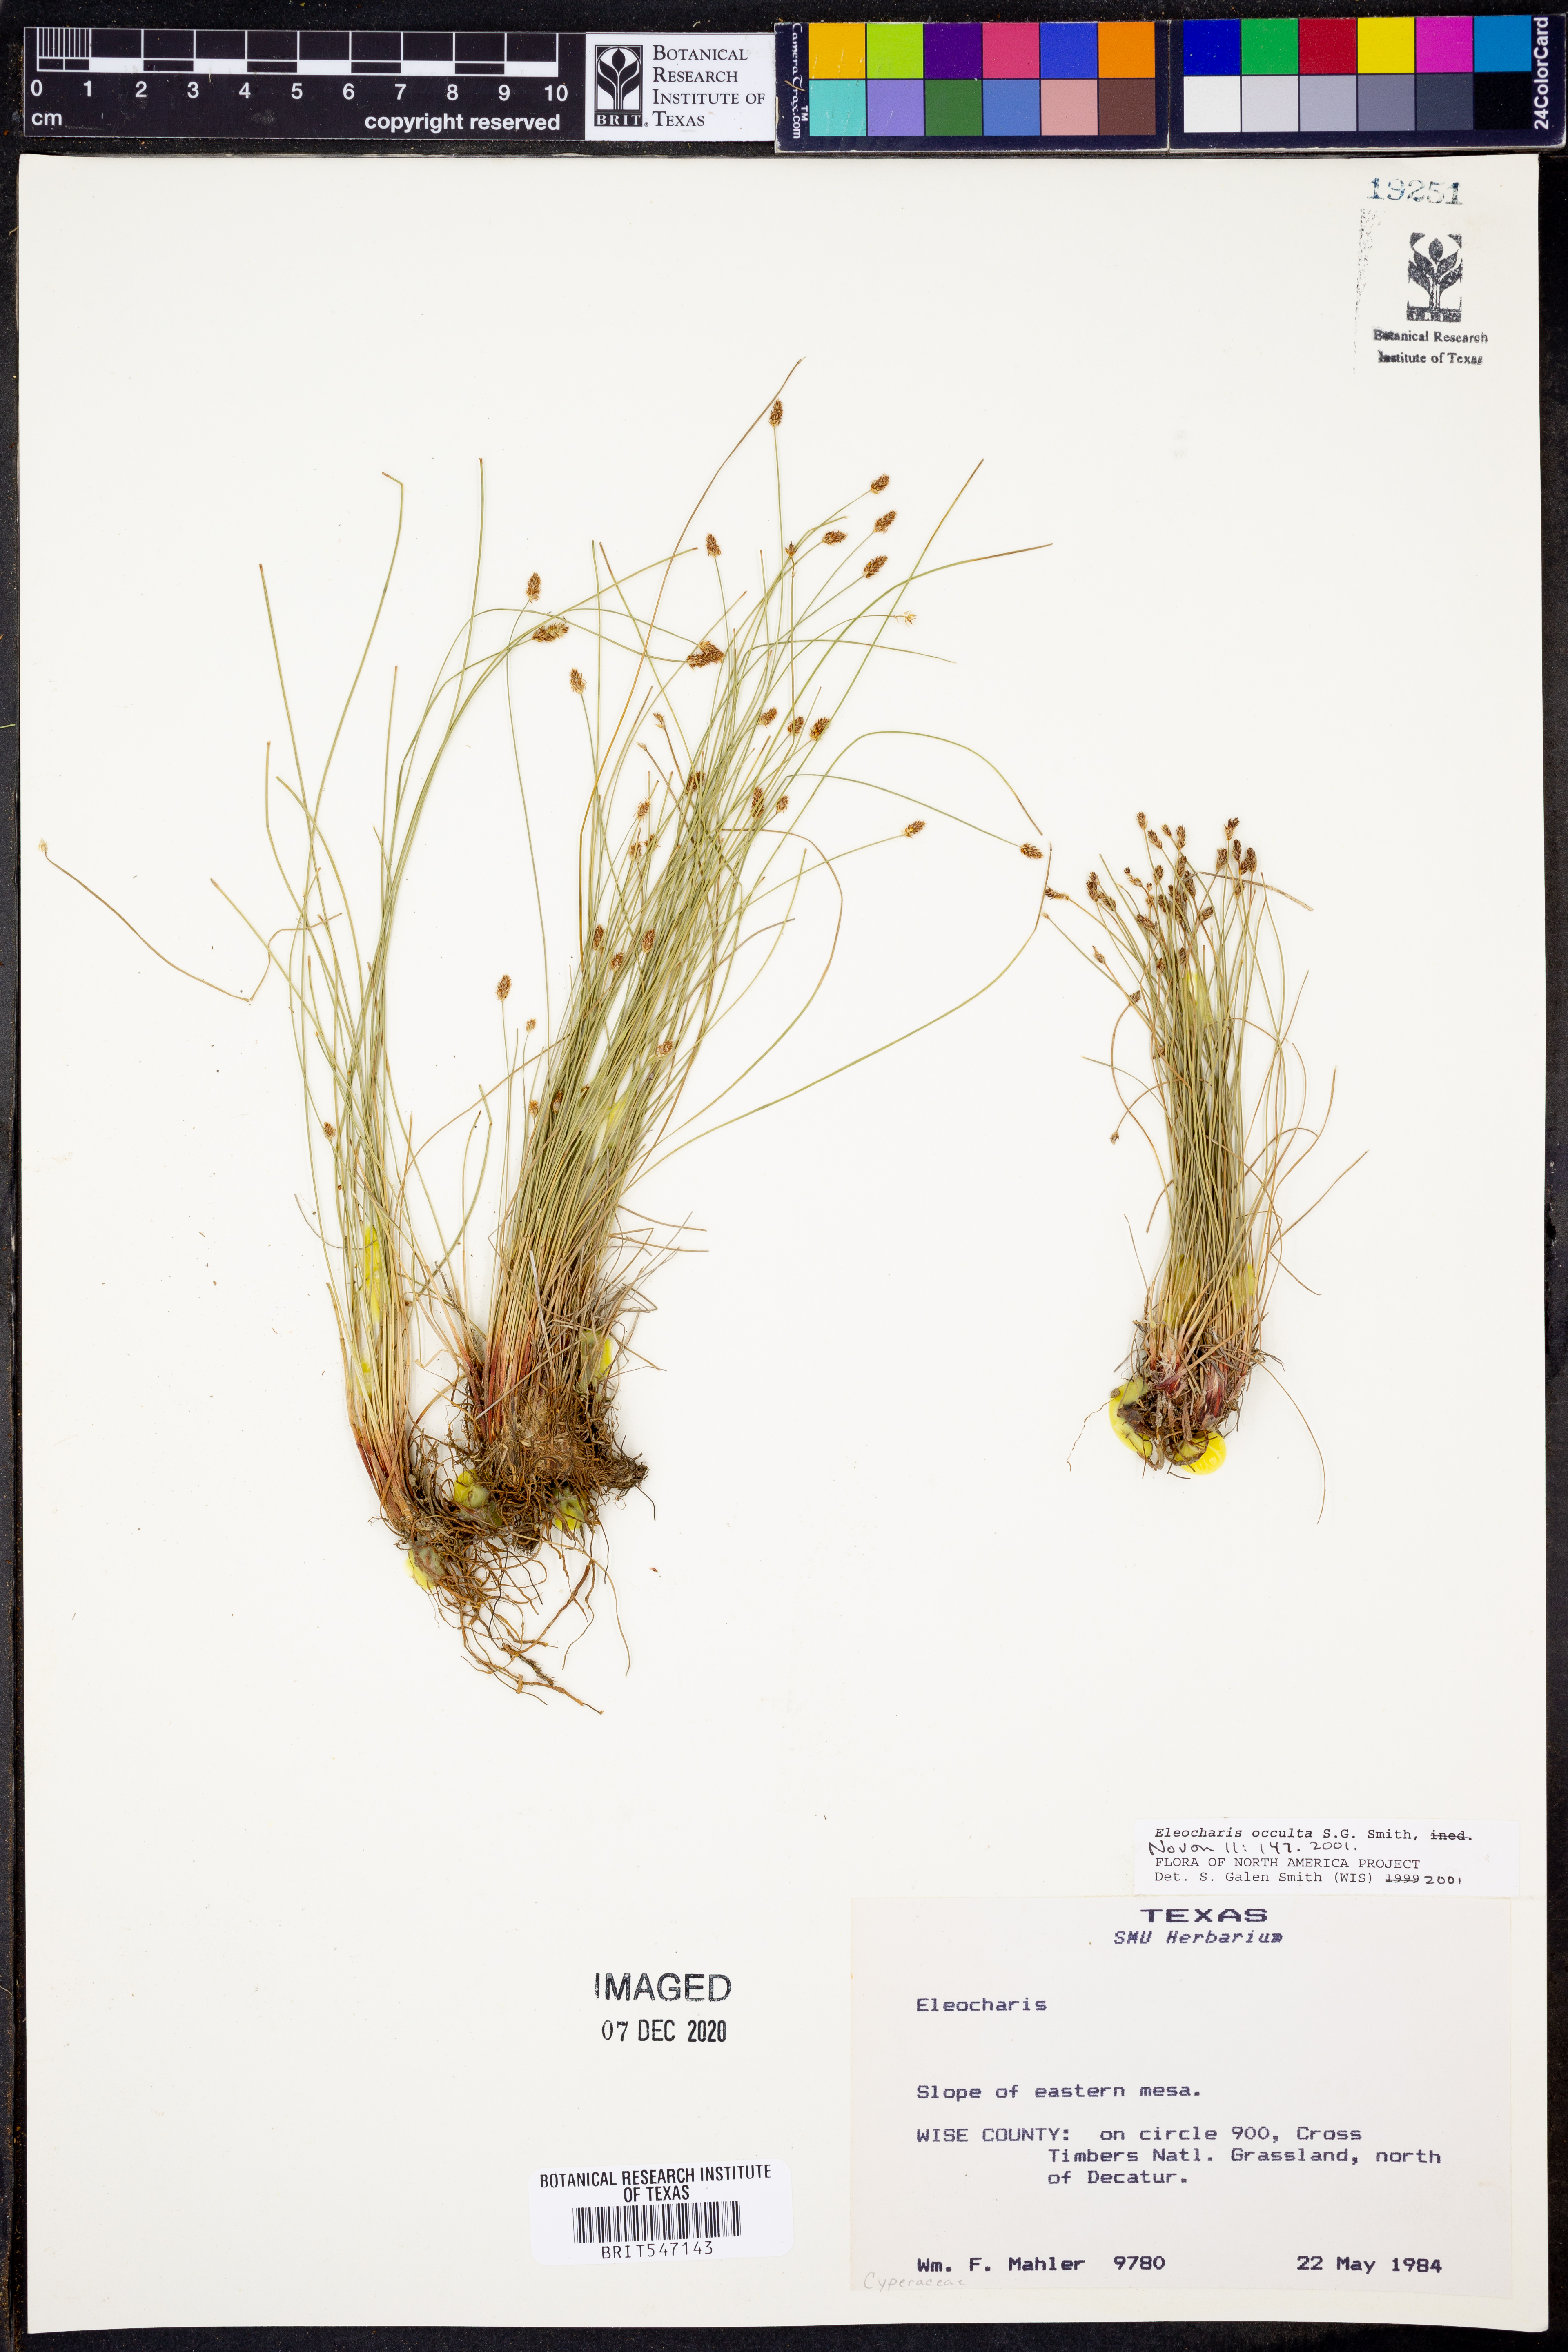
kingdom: Plantae
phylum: Tracheophyta
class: Liliopsida
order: Poales
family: Cyperaceae
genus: Eleocharis
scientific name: Eleocharis occulta
